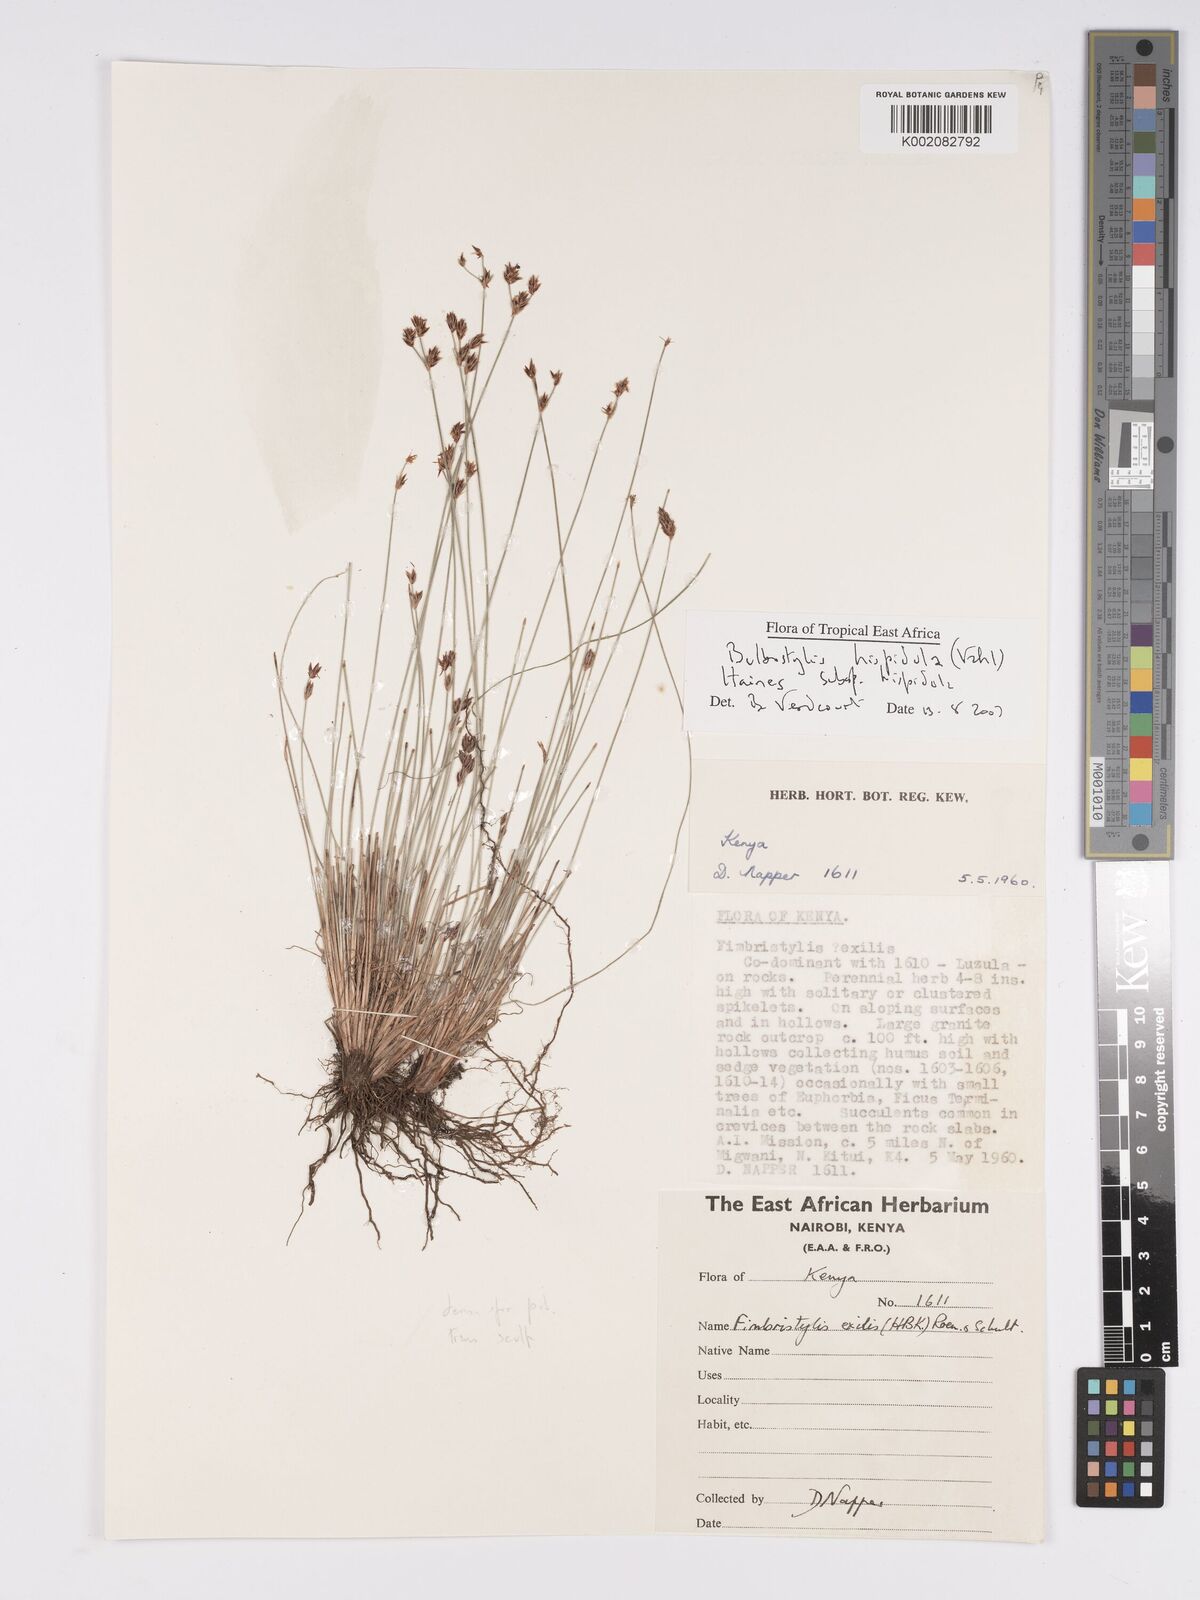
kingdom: Plantae
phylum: Tracheophyta
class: Liliopsida
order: Poales
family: Cyperaceae
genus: Bulbostylis
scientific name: Bulbostylis hispidula
